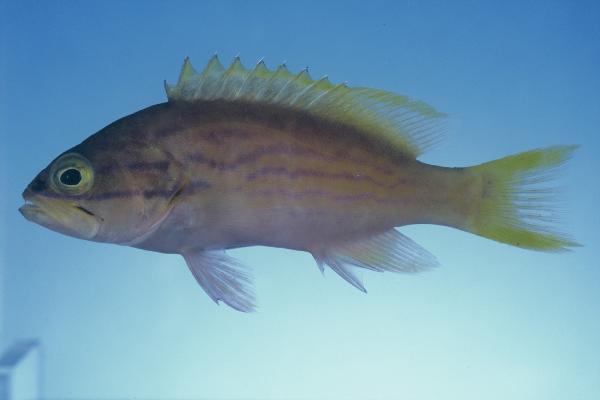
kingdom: Animalia
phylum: Chordata
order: Perciformes
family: Serranidae
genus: Cephalopholis
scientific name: Cephalopholis polleni
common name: Harlequin hind
